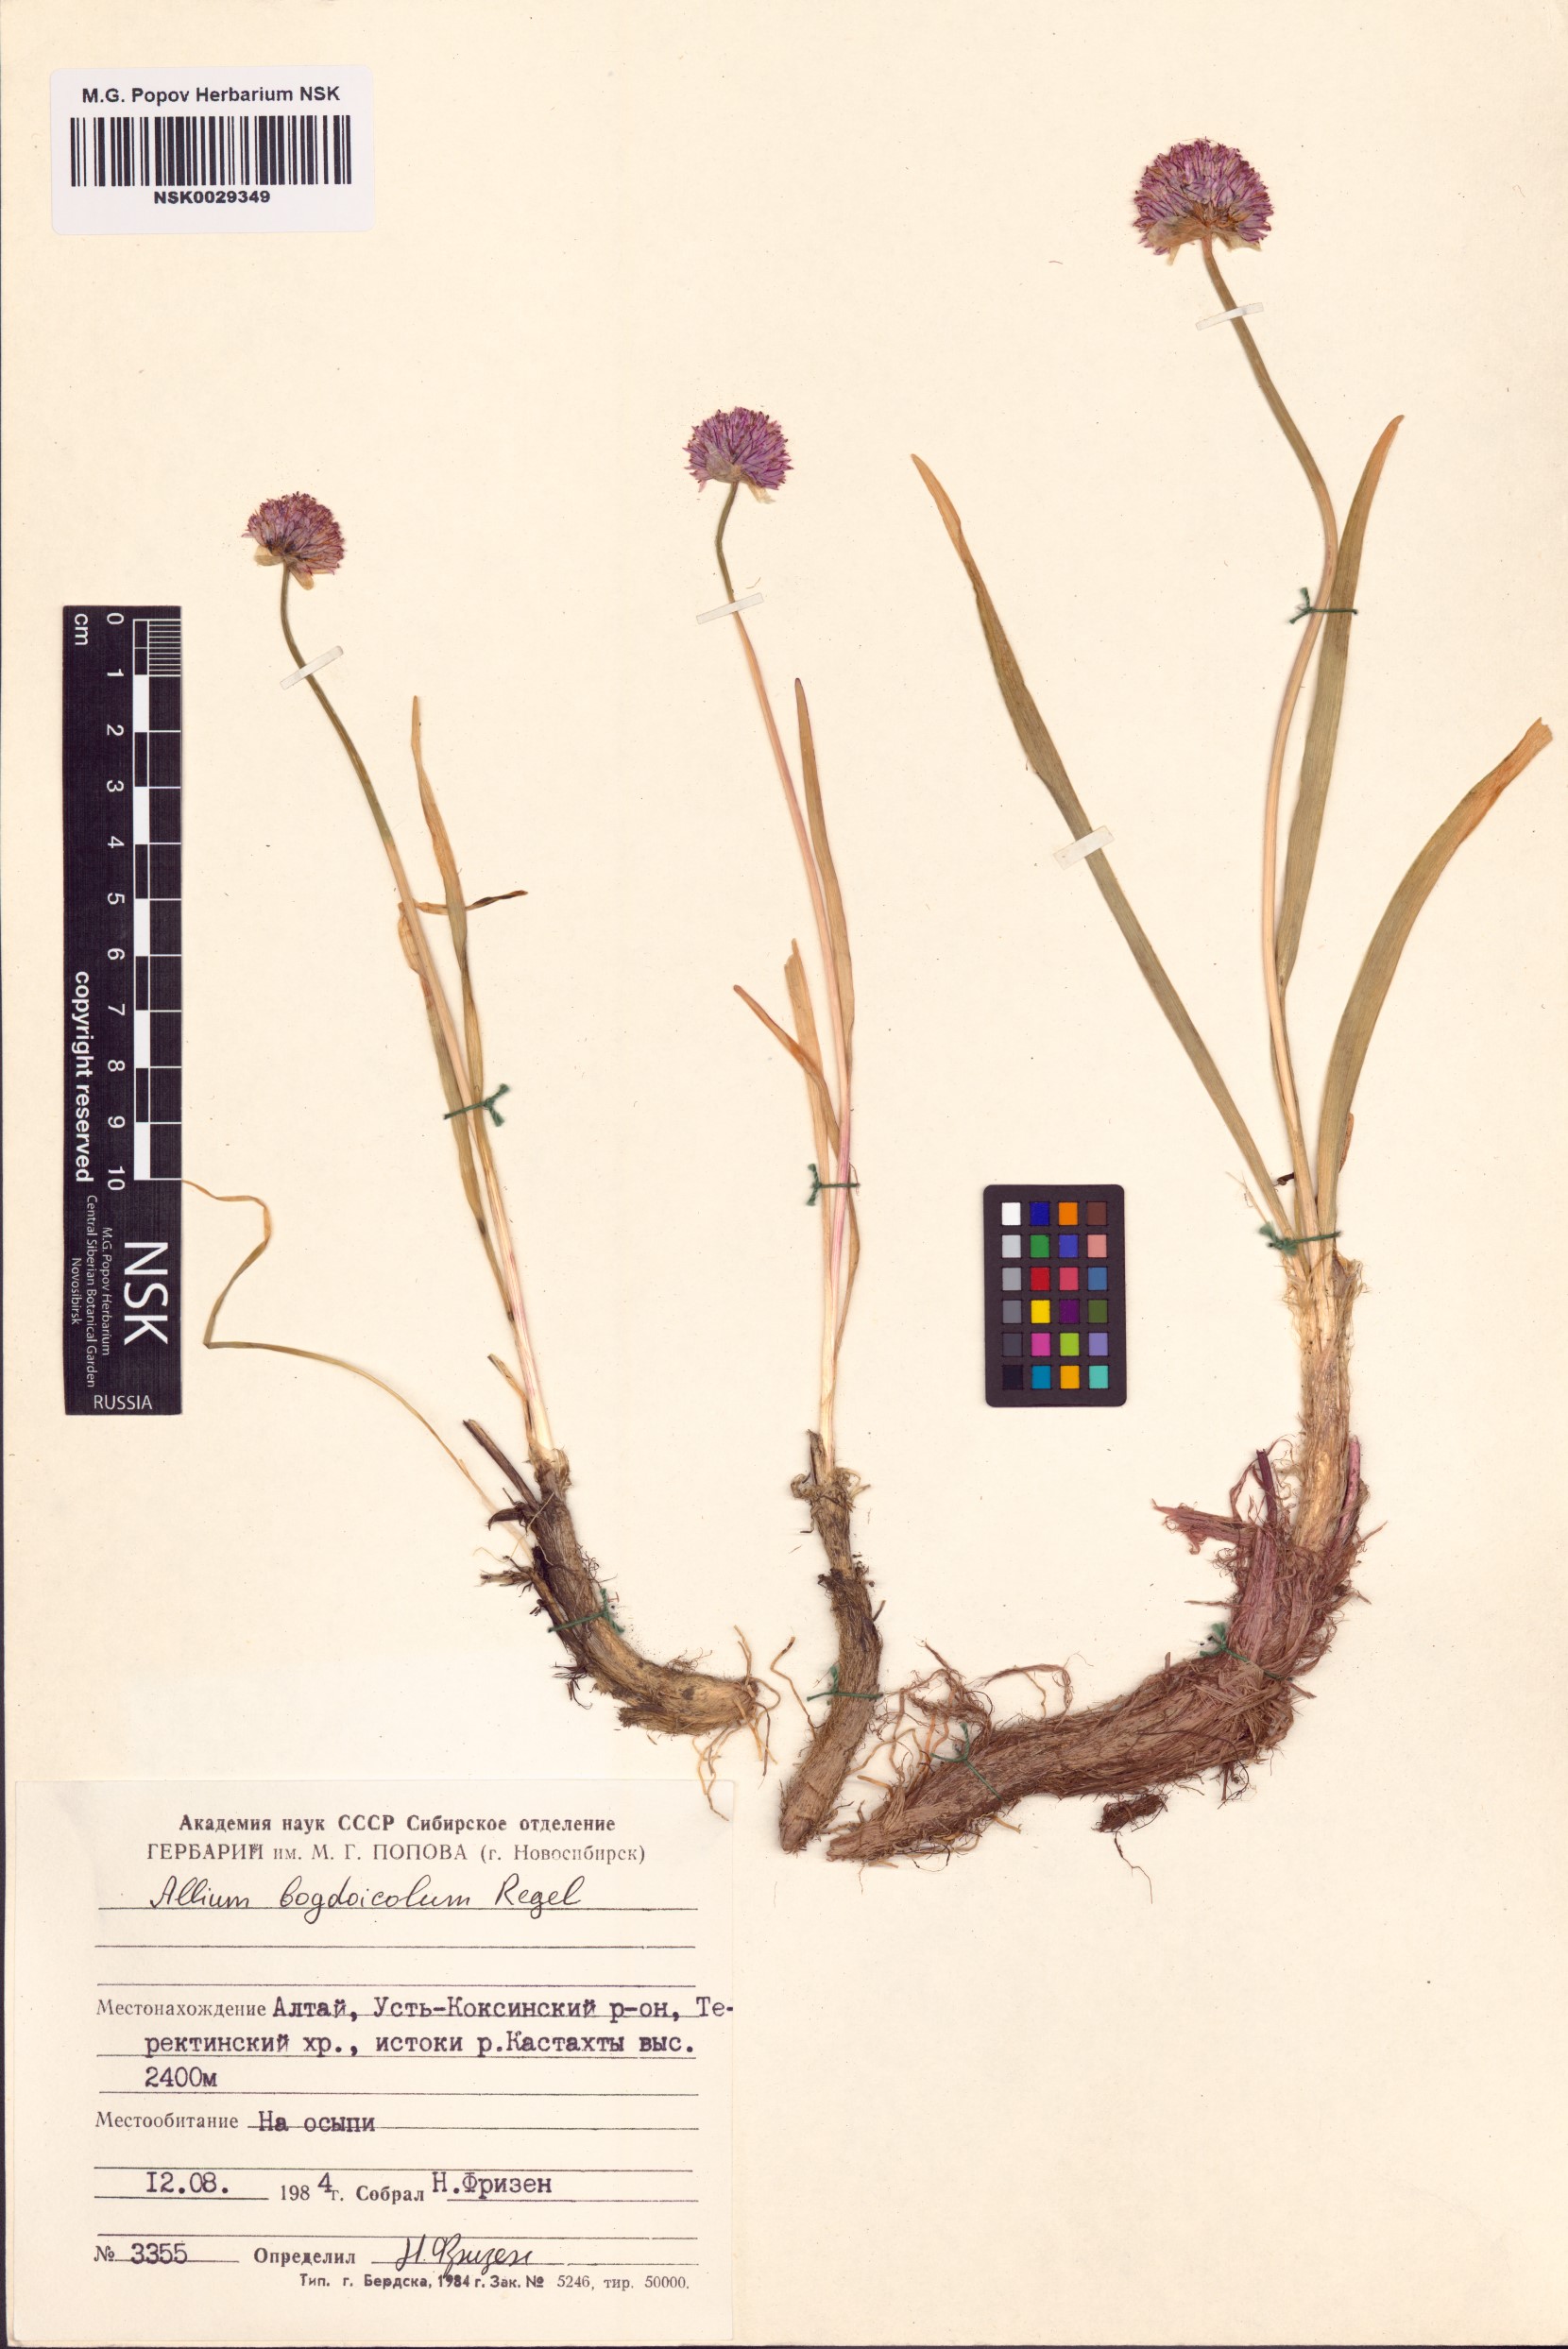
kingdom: Plantae
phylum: Tracheophyta
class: Liliopsida
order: Asparagales
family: Amaryllidaceae
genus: Allium
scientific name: Allium schrenkii
